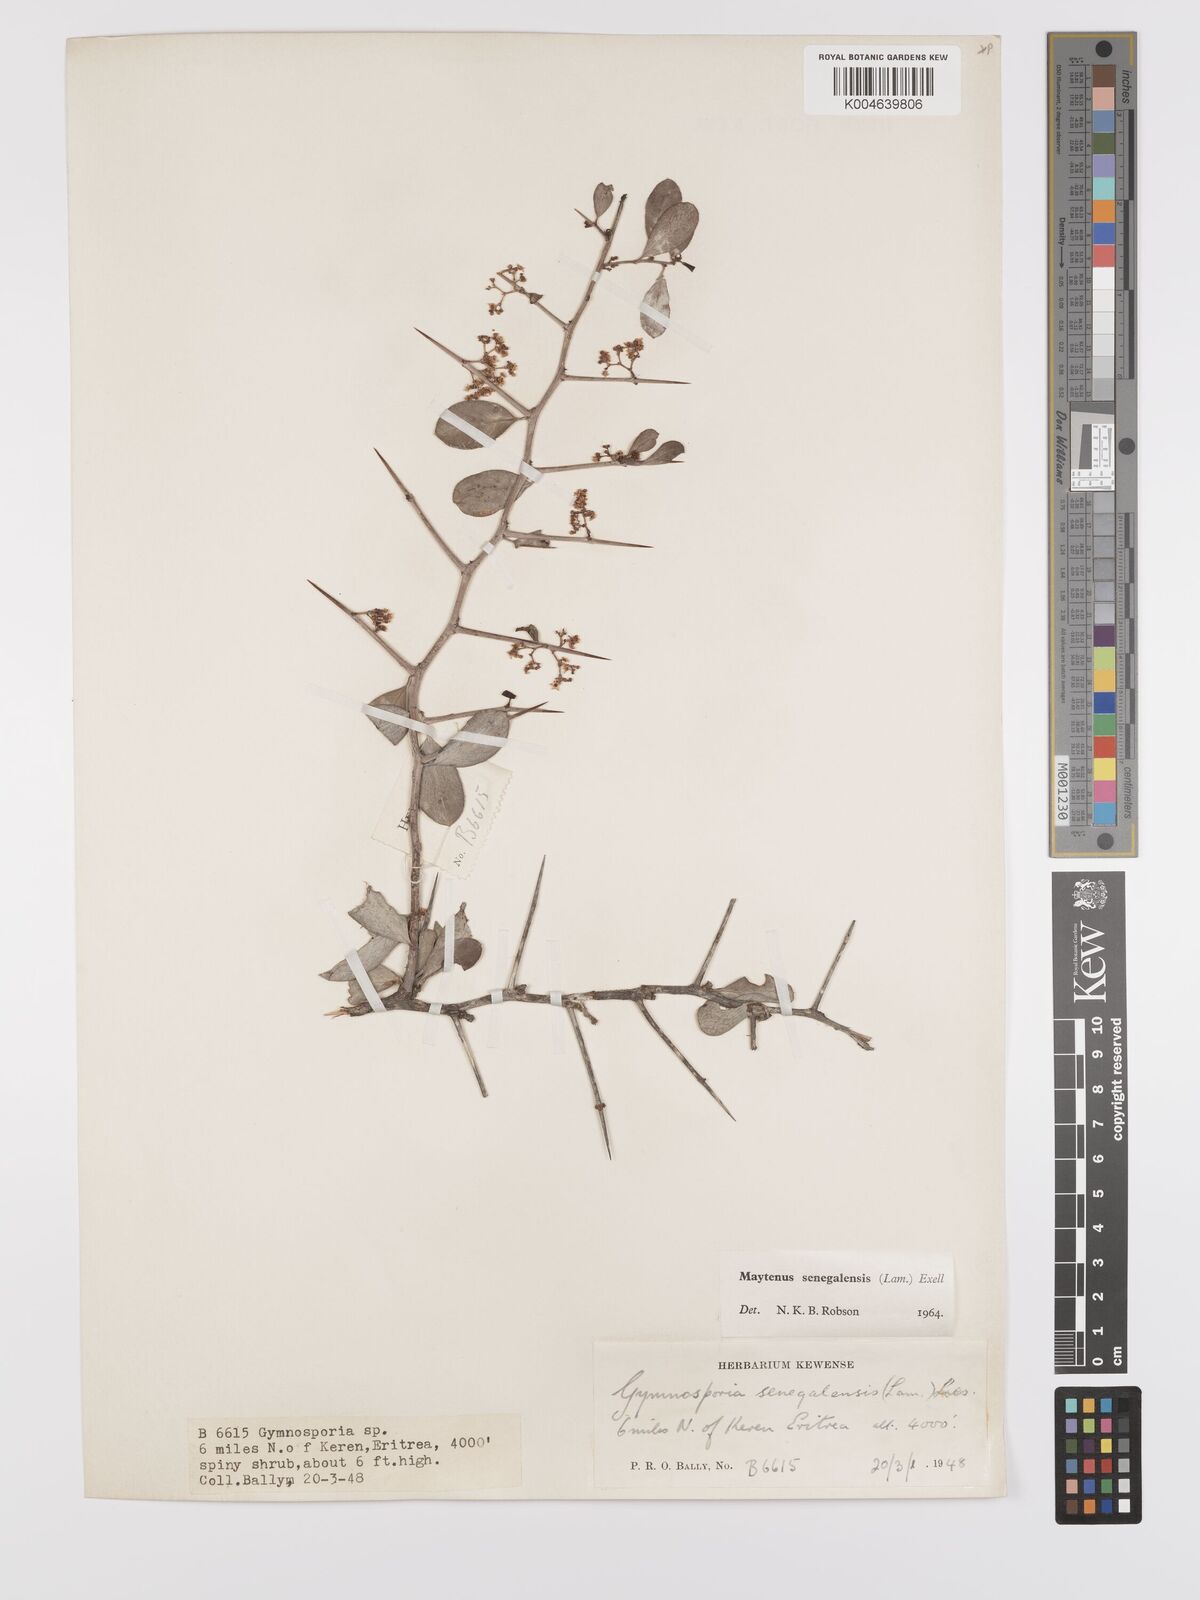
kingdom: Plantae
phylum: Tracheophyta
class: Magnoliopsida
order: Celastrales
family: Celastraceae
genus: Gymnosporia
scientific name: Gymnosporia senegalensis
